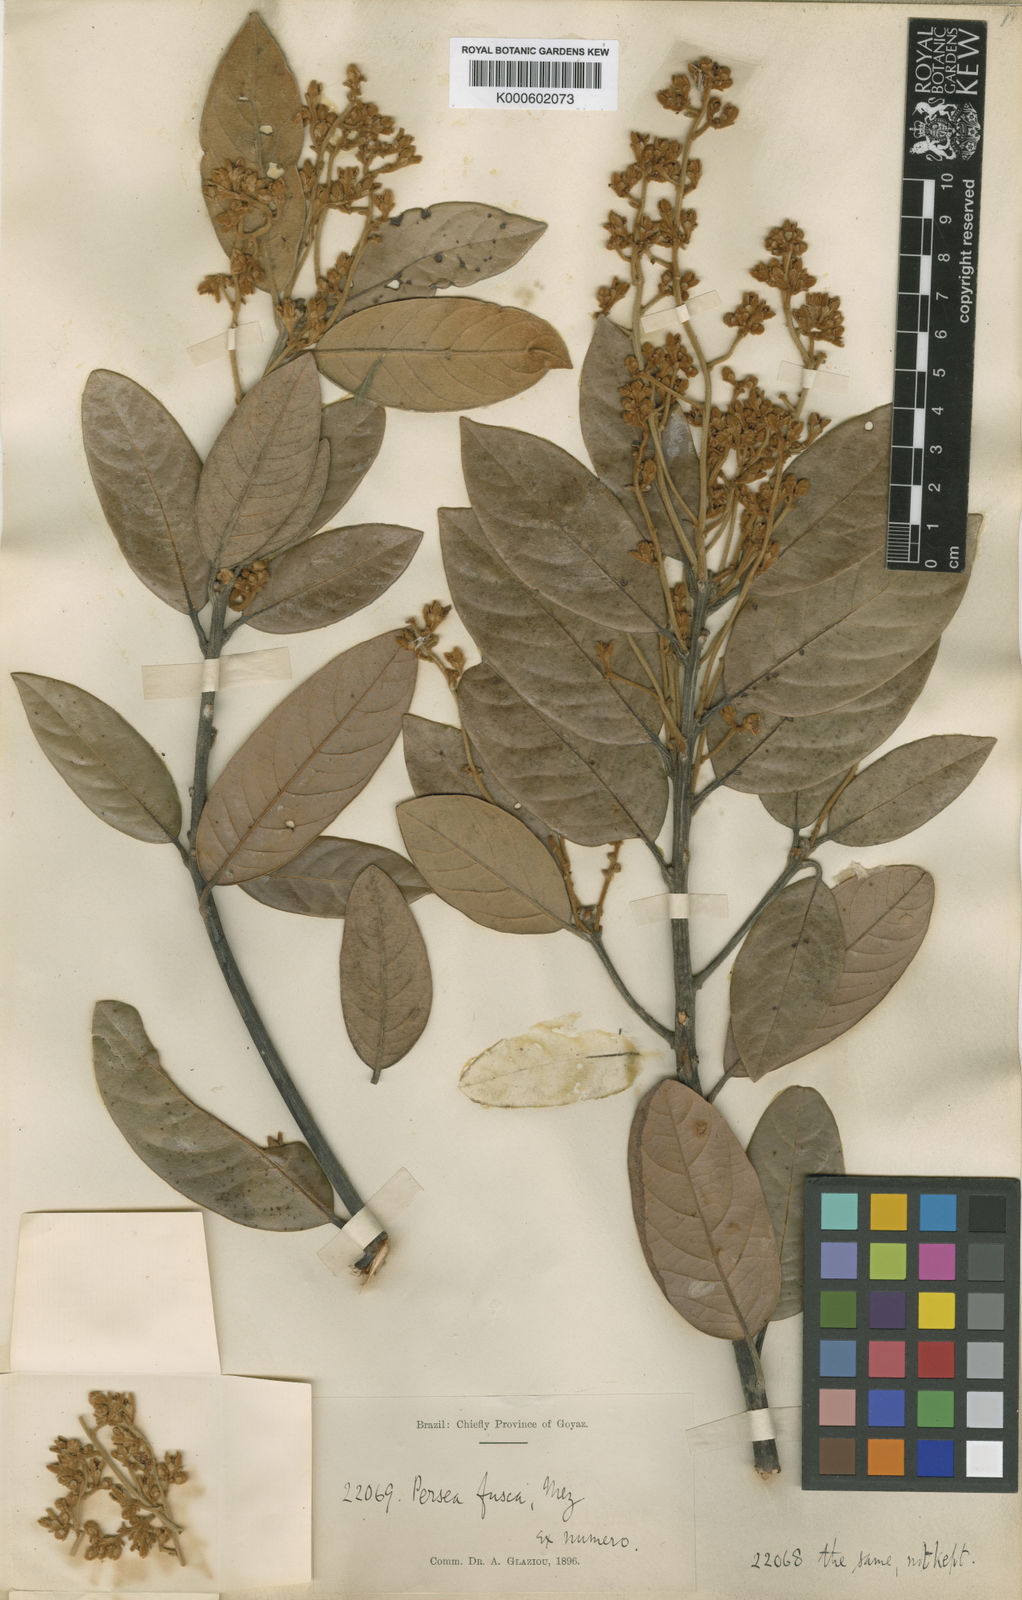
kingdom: Plantae
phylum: Tracheophyta
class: Magnoliopsida
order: Laurales
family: Lauraceae
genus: Persea
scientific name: Persea fusca
